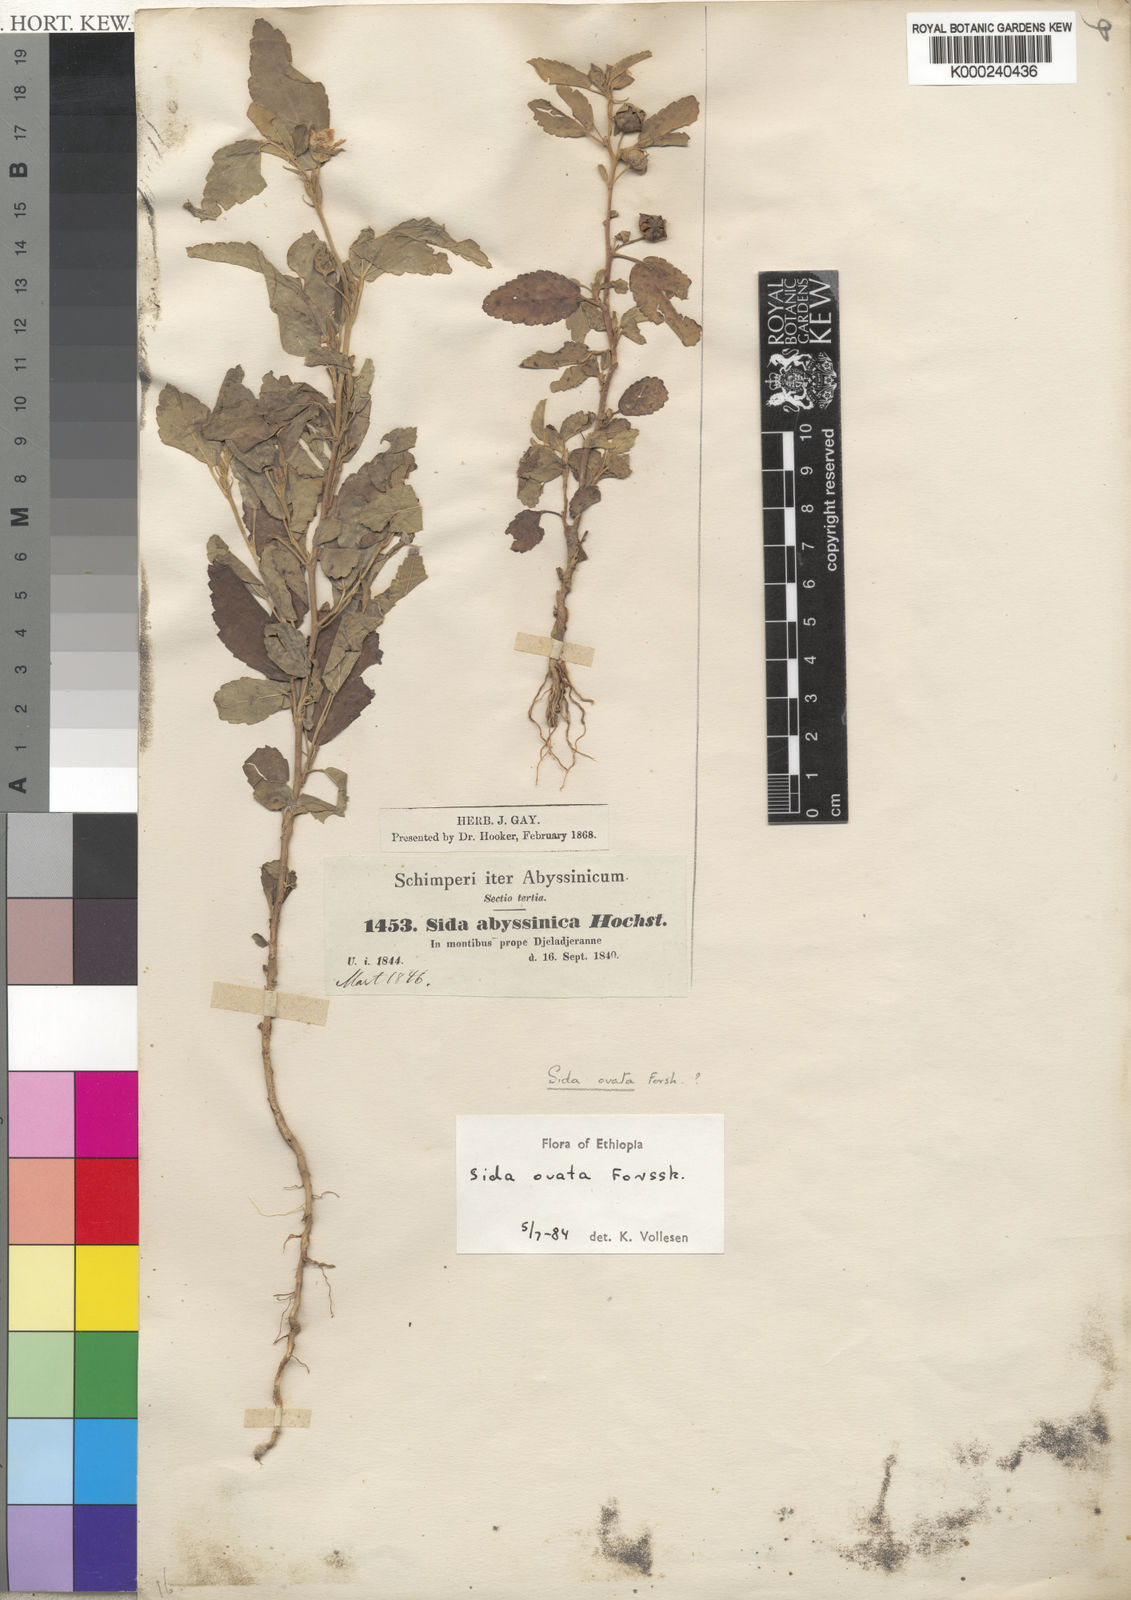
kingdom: Plantae
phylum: Tracheophyta
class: Magnoliopsida
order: Malvales
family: Malvaceae
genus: Sida
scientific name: Sida ovata
